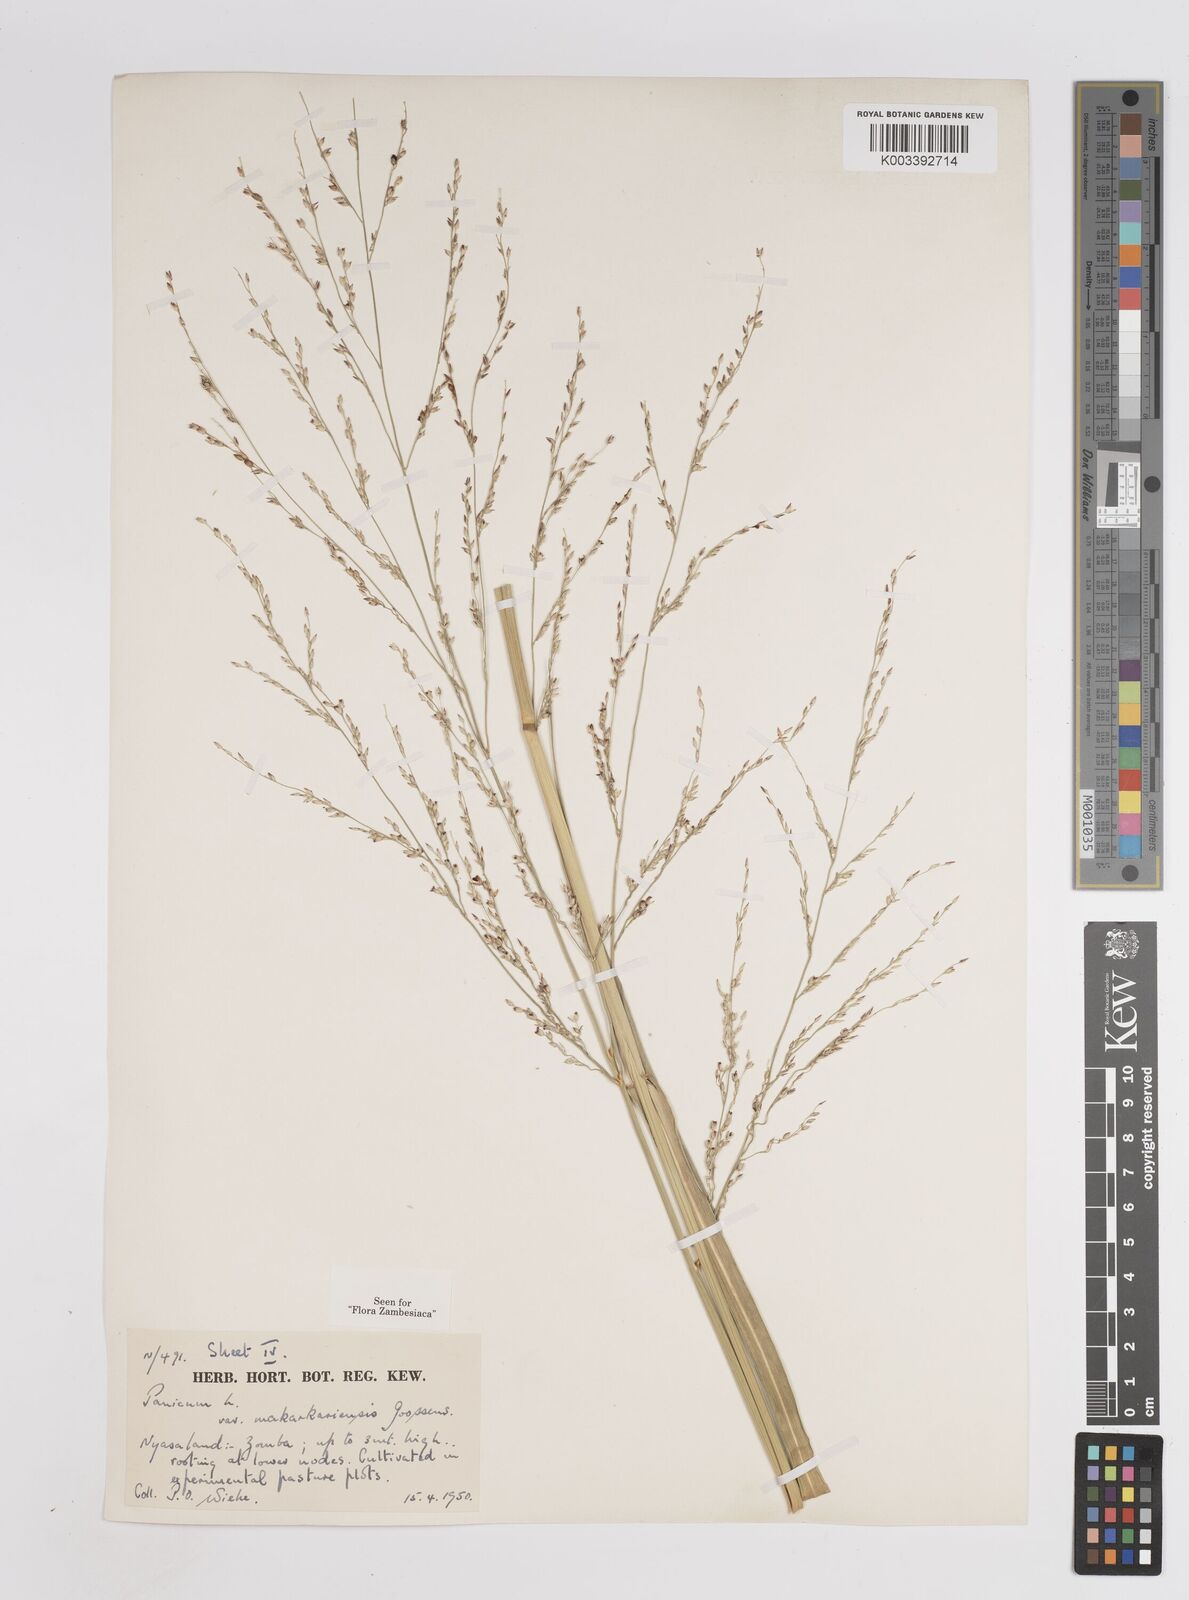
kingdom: Plantae
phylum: Tracheophyta
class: Liliopsida
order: Poales
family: Poaceae
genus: Panicum
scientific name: Panicum coloratum
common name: Kleingrass
